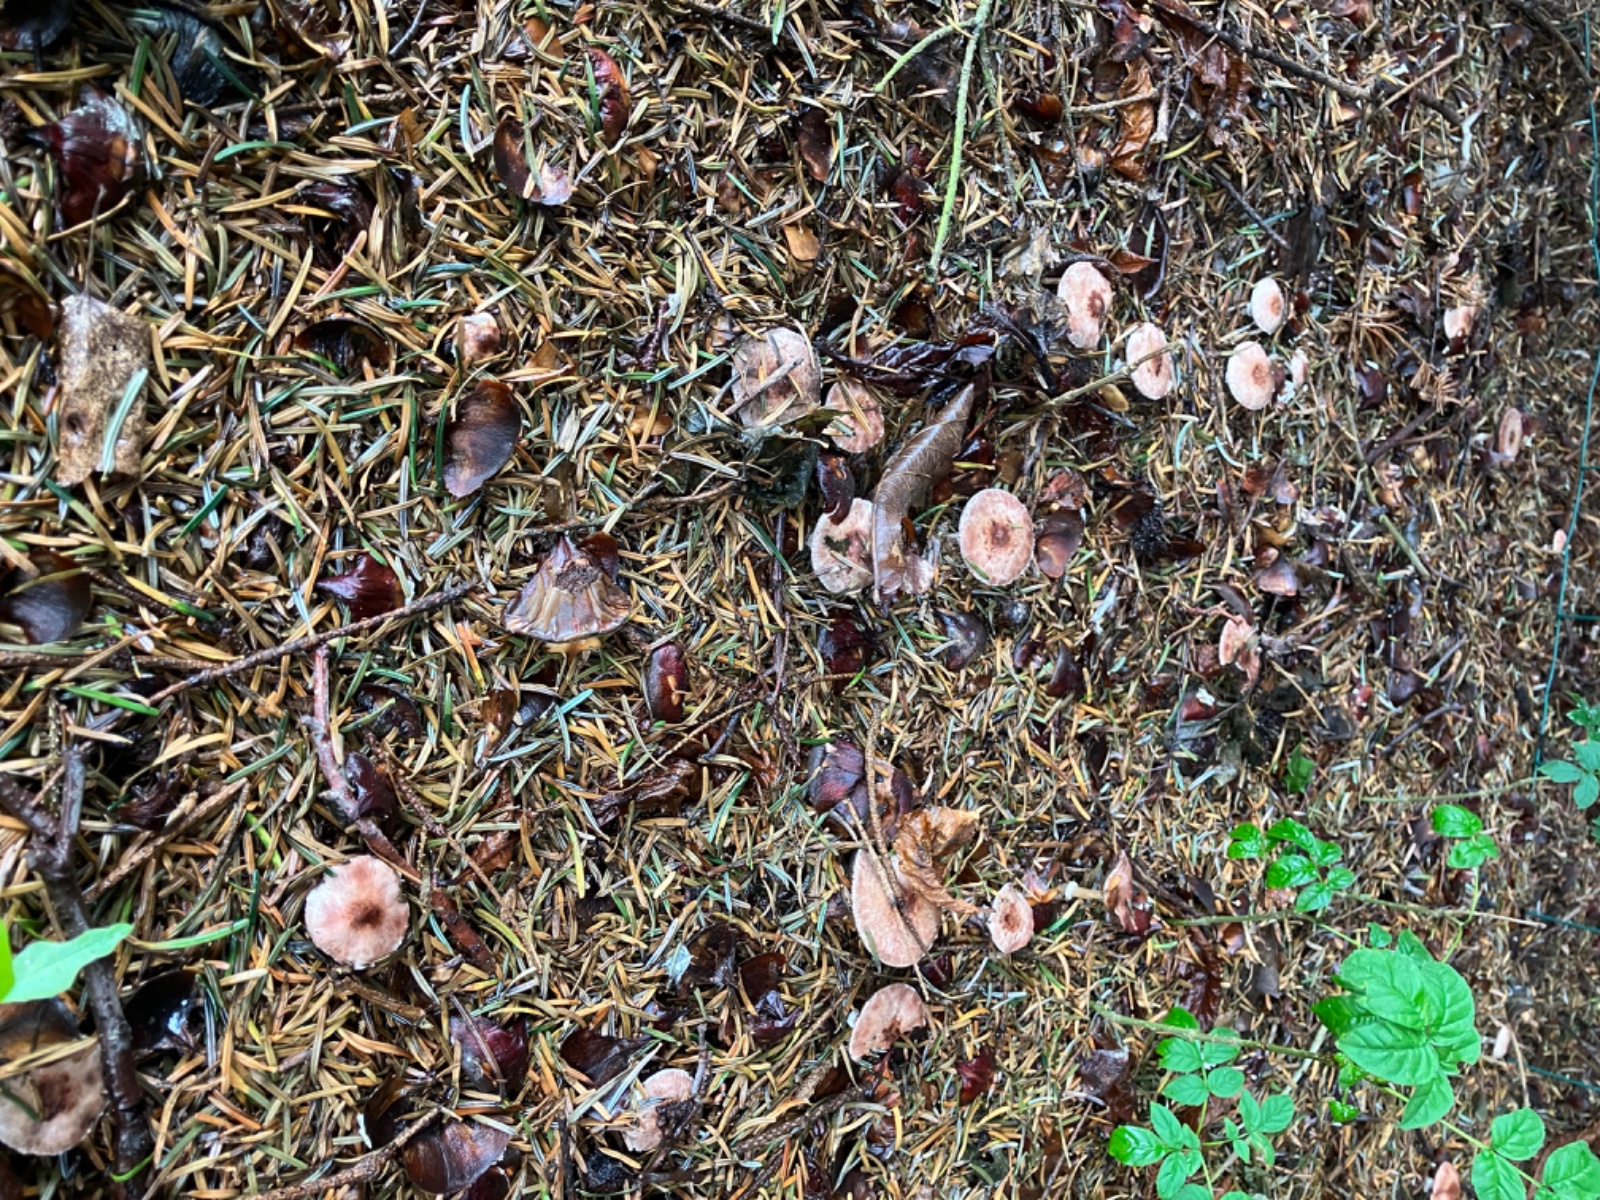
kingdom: Fungi
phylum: Basidiomycota
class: Agaricomycetes
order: Agaricales
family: Agaricaceae
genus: Agaricus
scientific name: Agaricus dulcidulus
